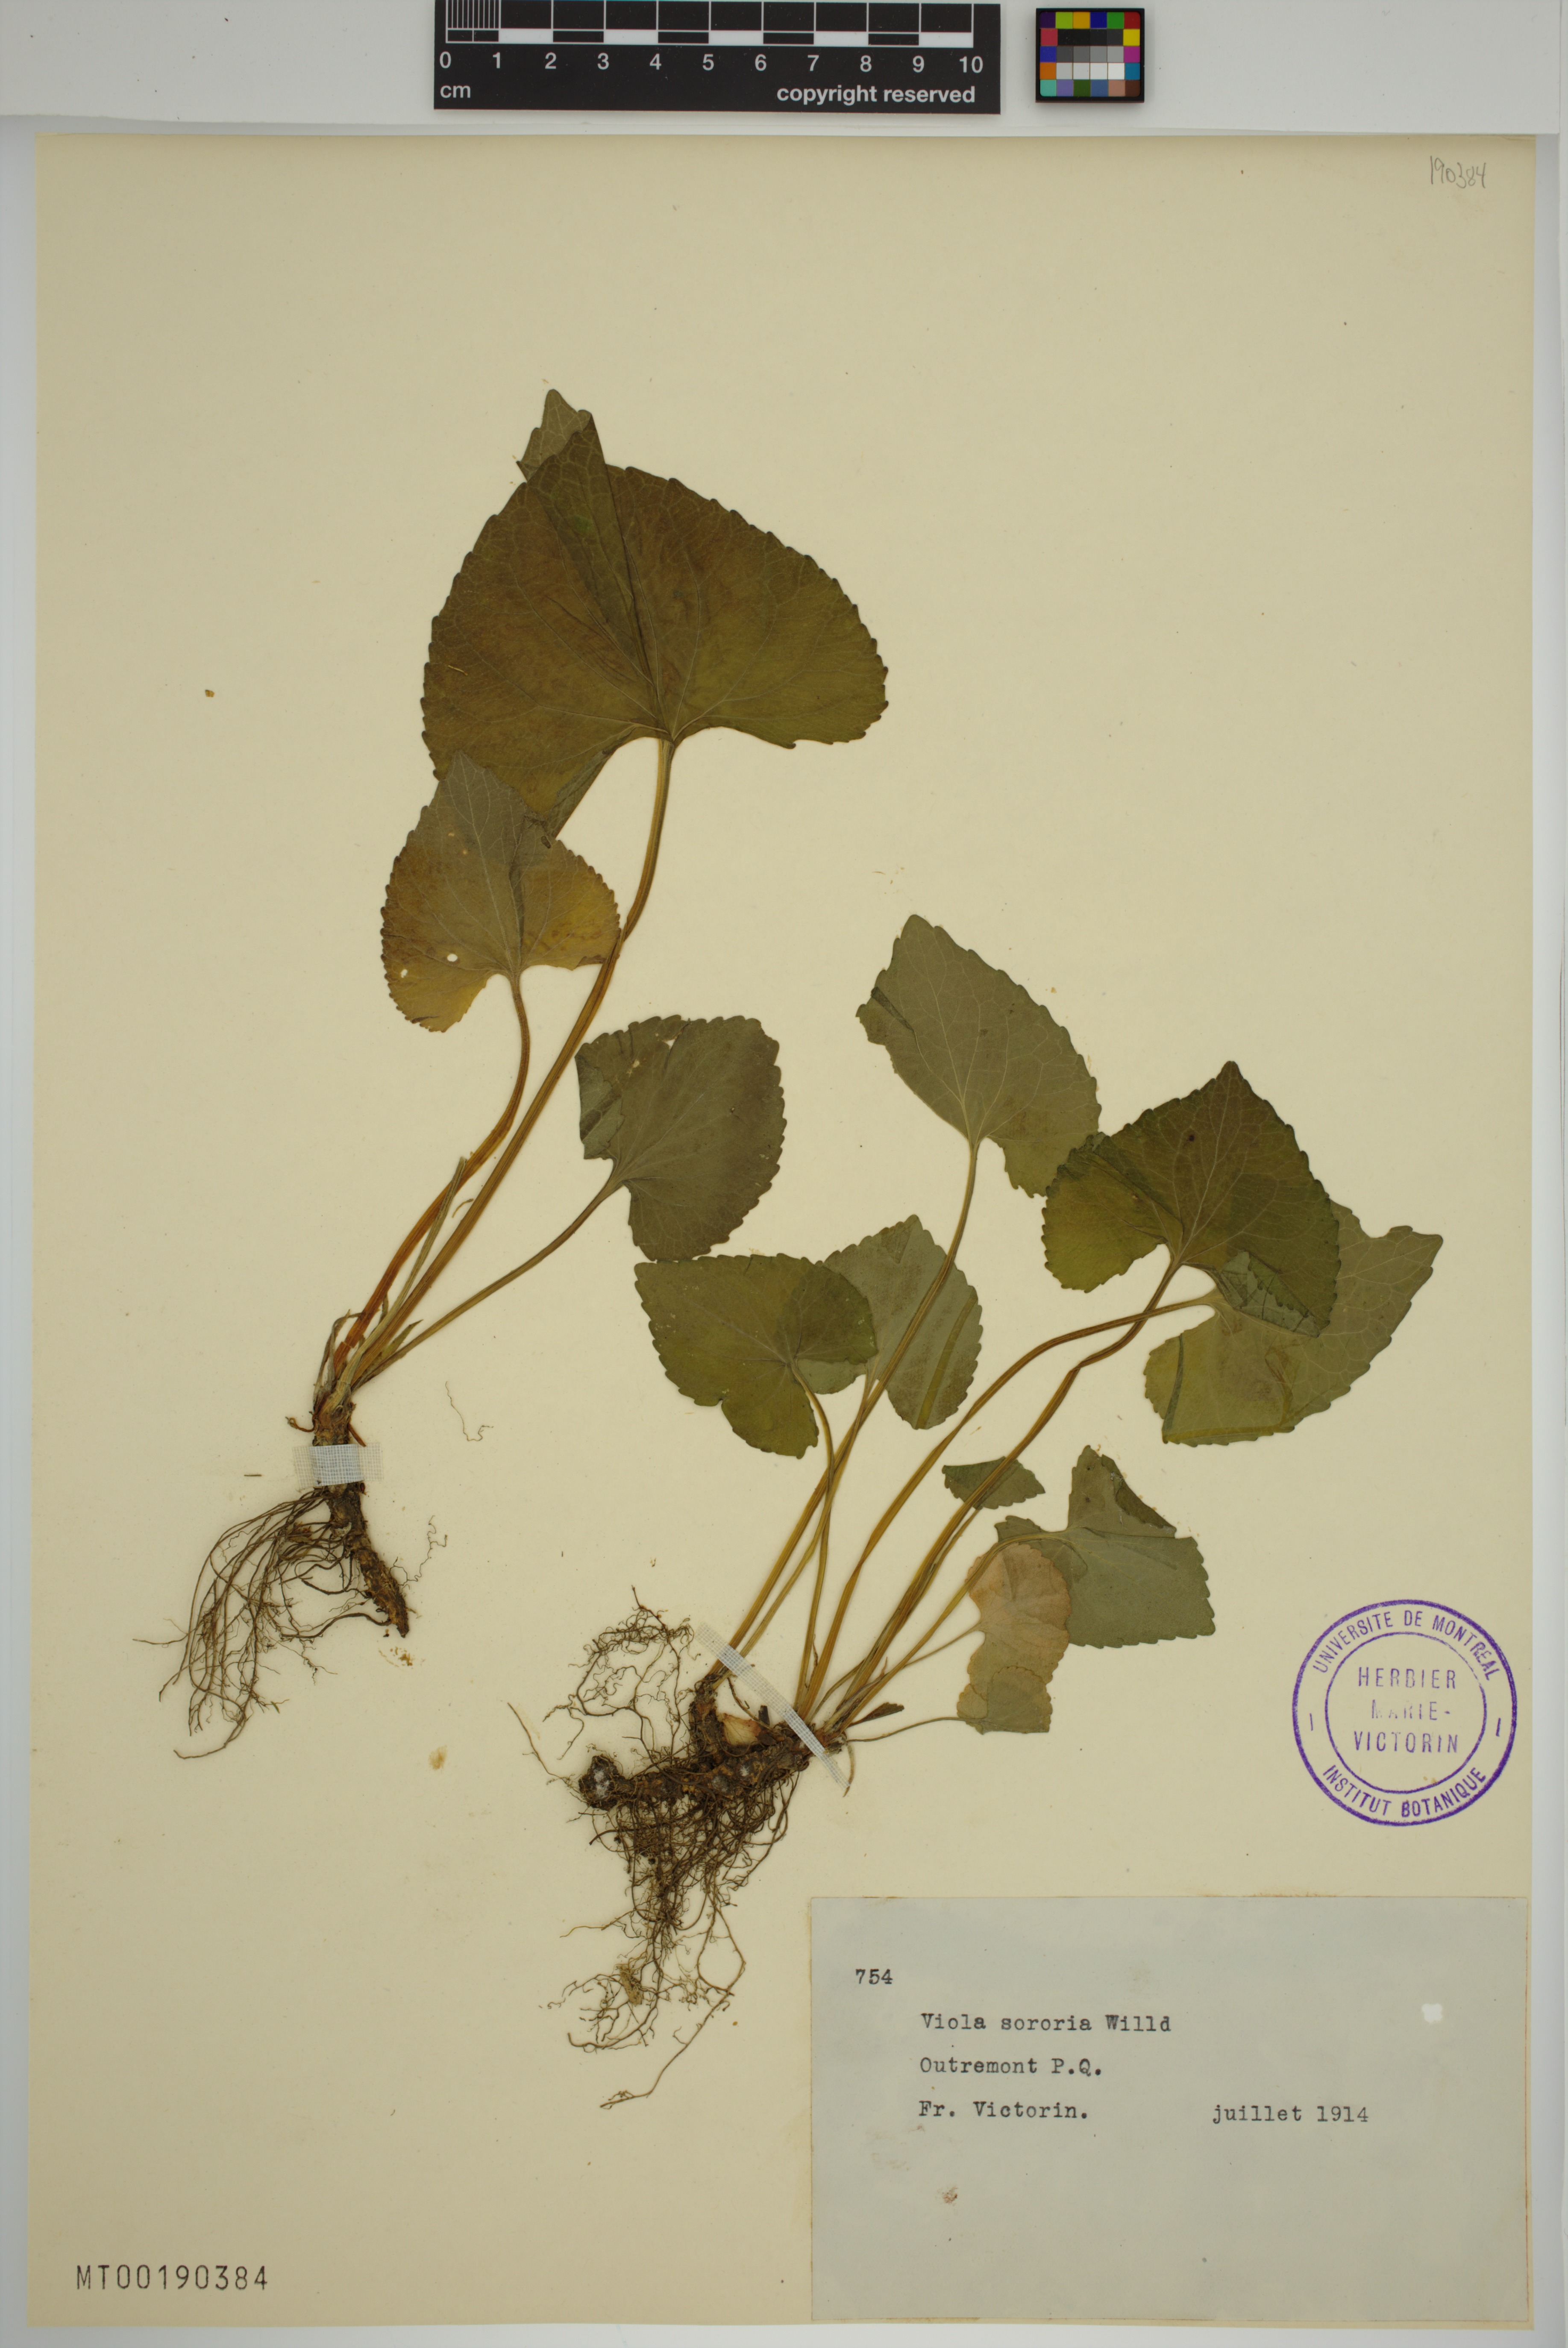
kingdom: Plantae
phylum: Tracheophyta
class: Magnoliopsida
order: Malpighiales
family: Violaceae
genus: Viola
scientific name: Viola sororia
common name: Dooryard violet
